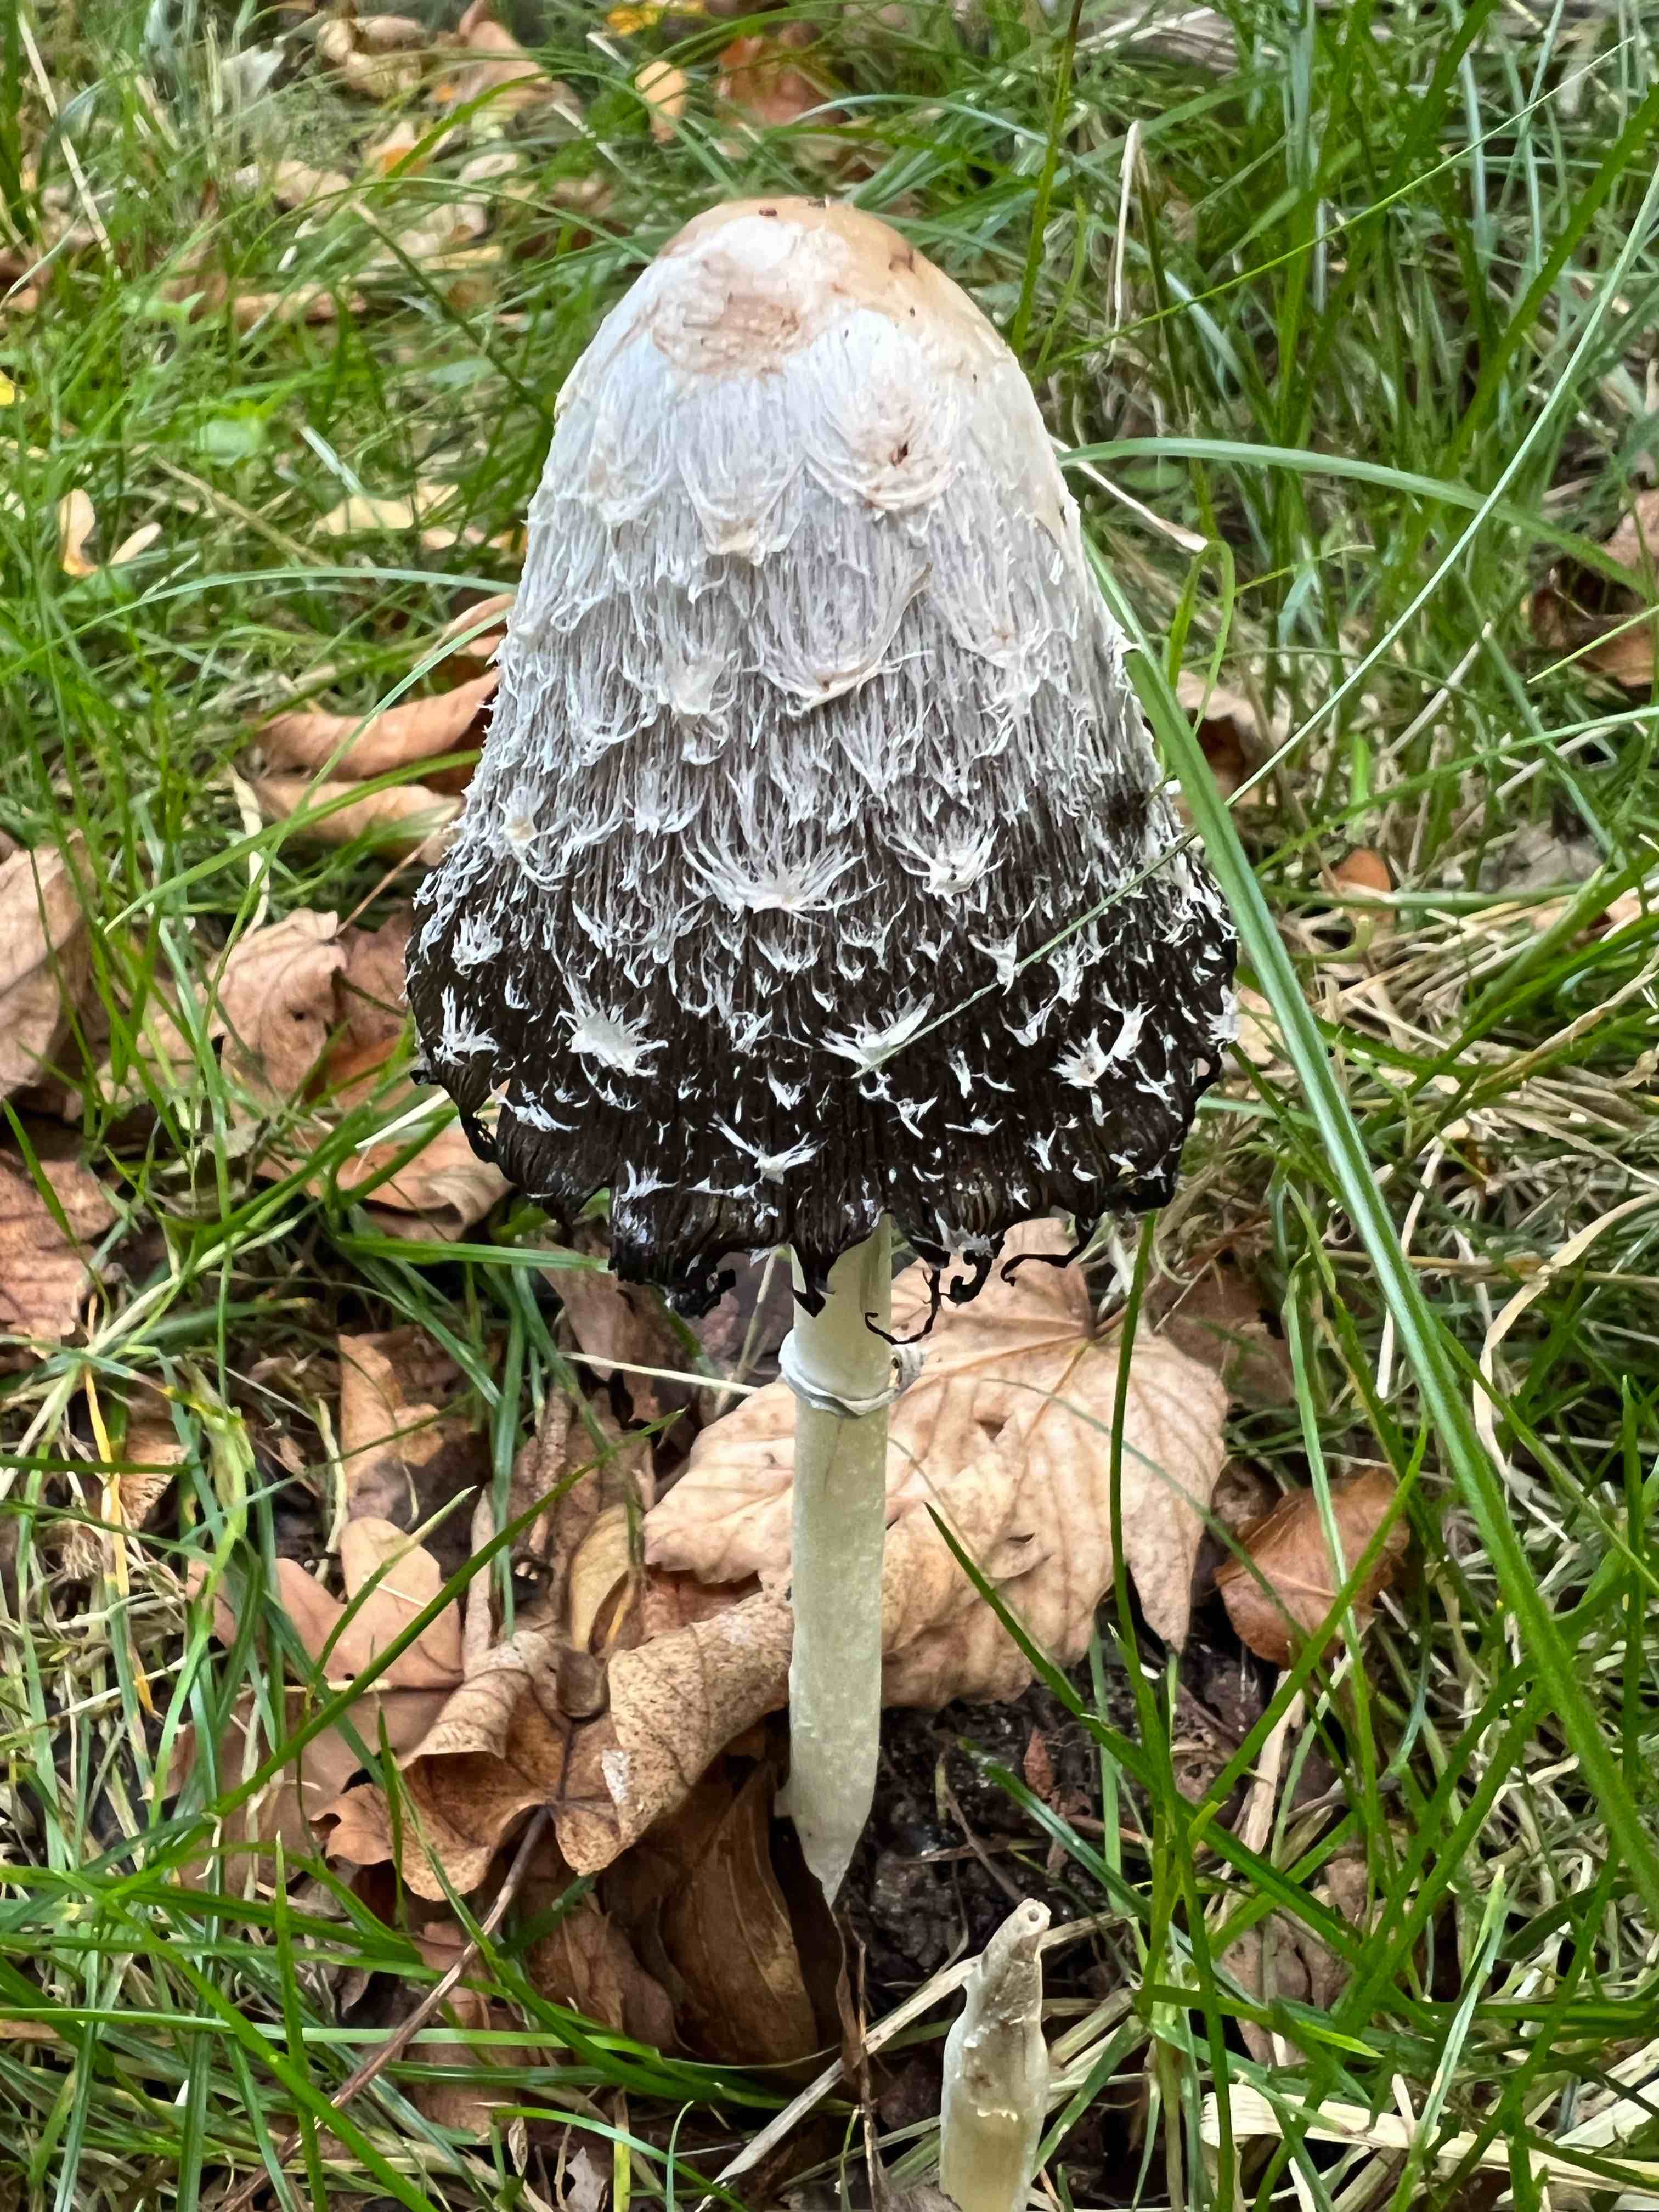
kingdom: Fungi
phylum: Basidiomycota
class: Agaricomycetes
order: Agaricales
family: Agaricaceae
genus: Coprinus
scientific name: Coprinus comatus
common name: stor parykhat
